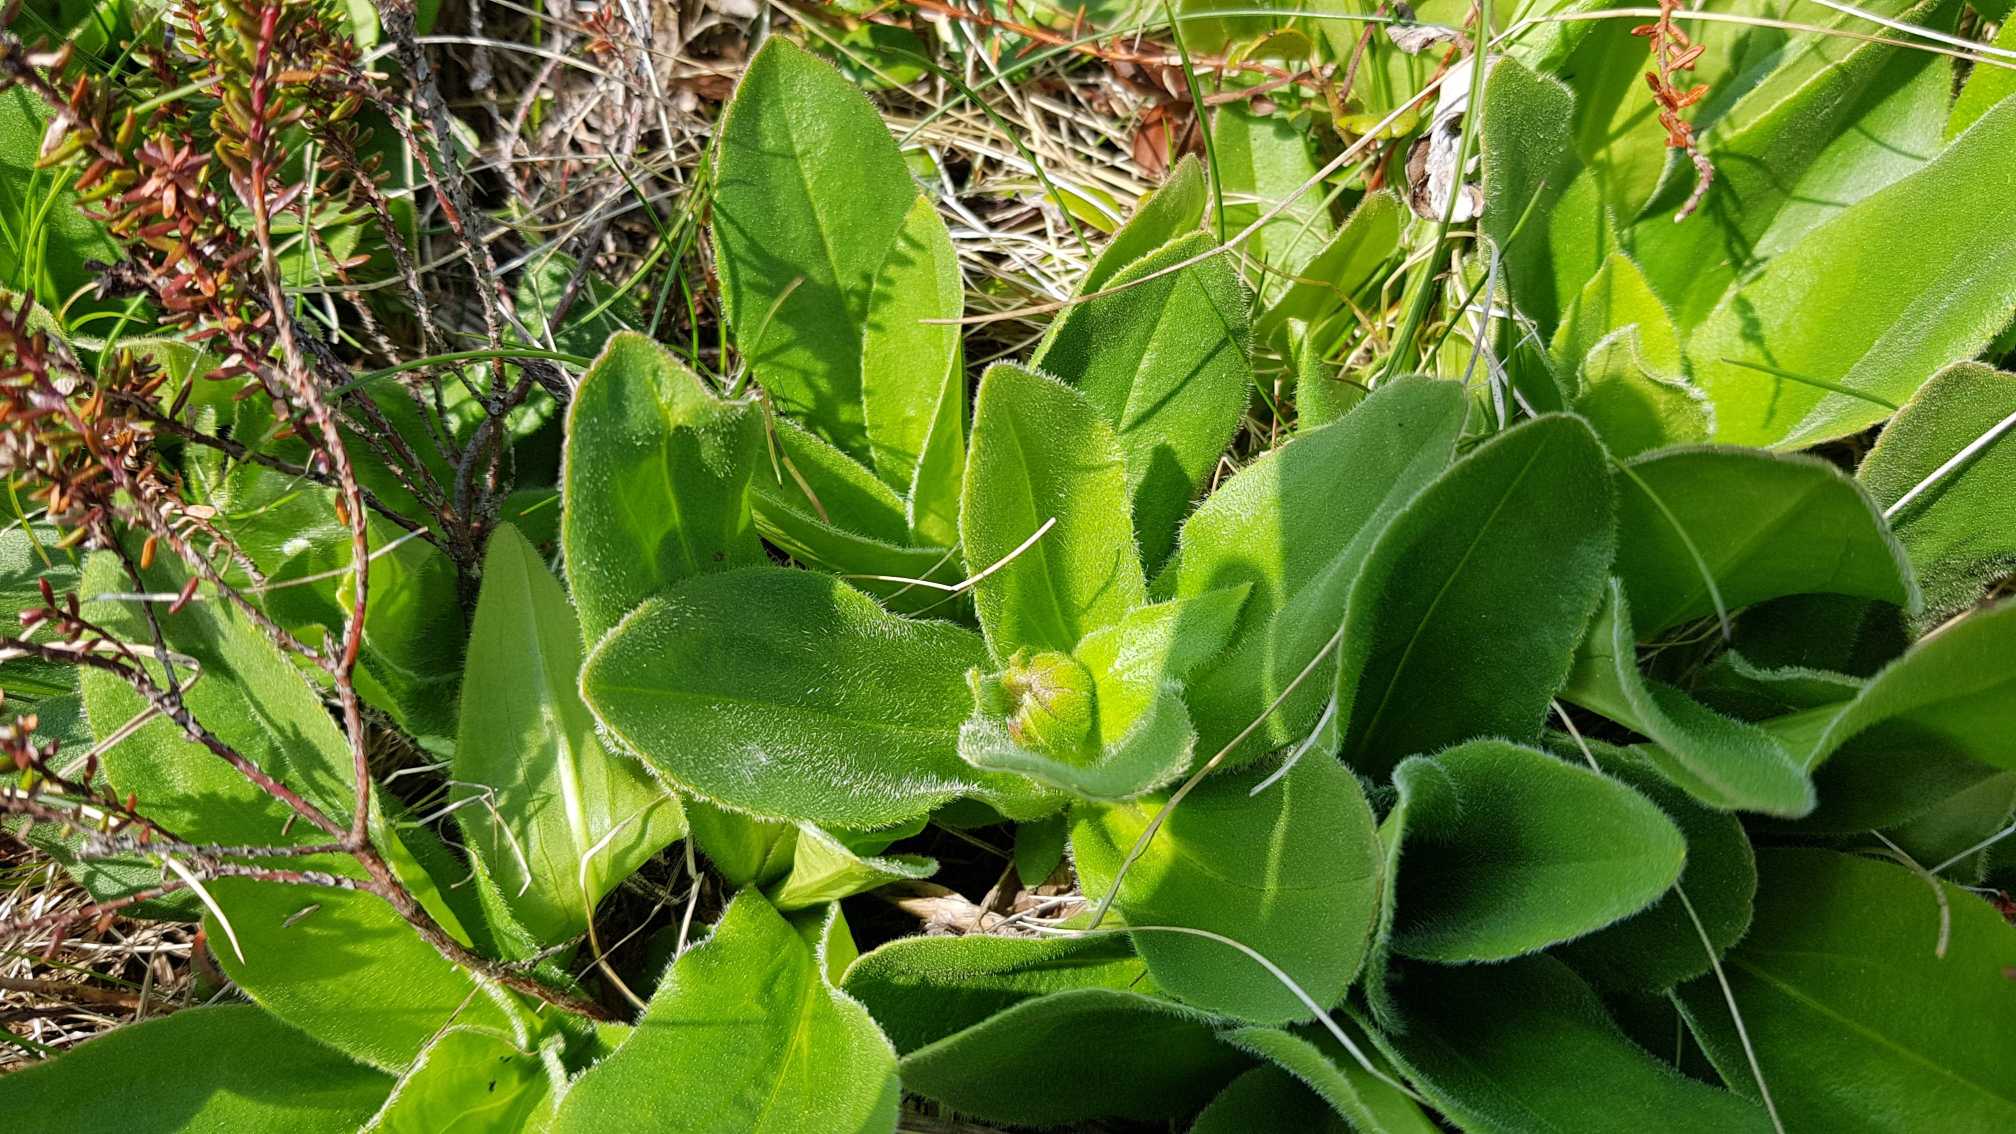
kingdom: Plantae
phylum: Tracheophyta
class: Magnoliopsida
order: Asterales
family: Asteraceae
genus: Arnica
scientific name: Arnica montana
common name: Guldblomme
